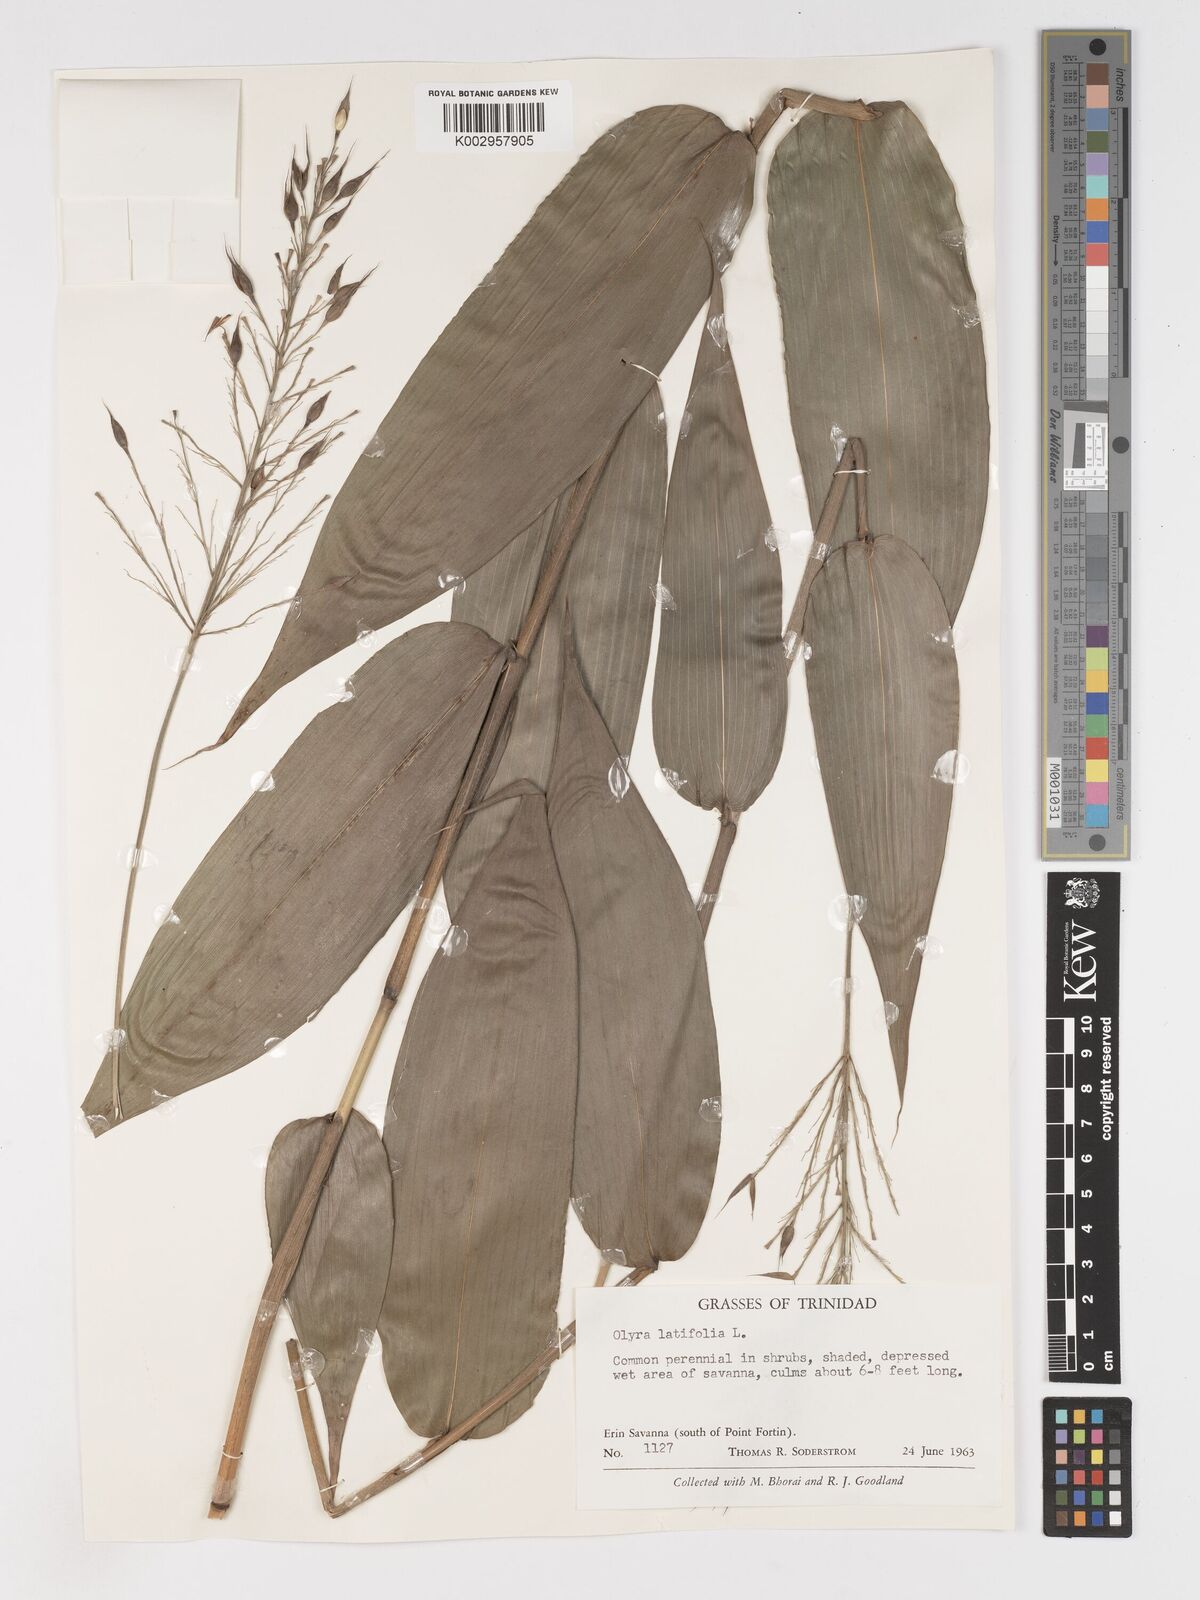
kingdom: Plantae
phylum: Tracheophyta
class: Liliopsida
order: Poales
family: Poaceae
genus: Olyra
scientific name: Olyra latifolia
